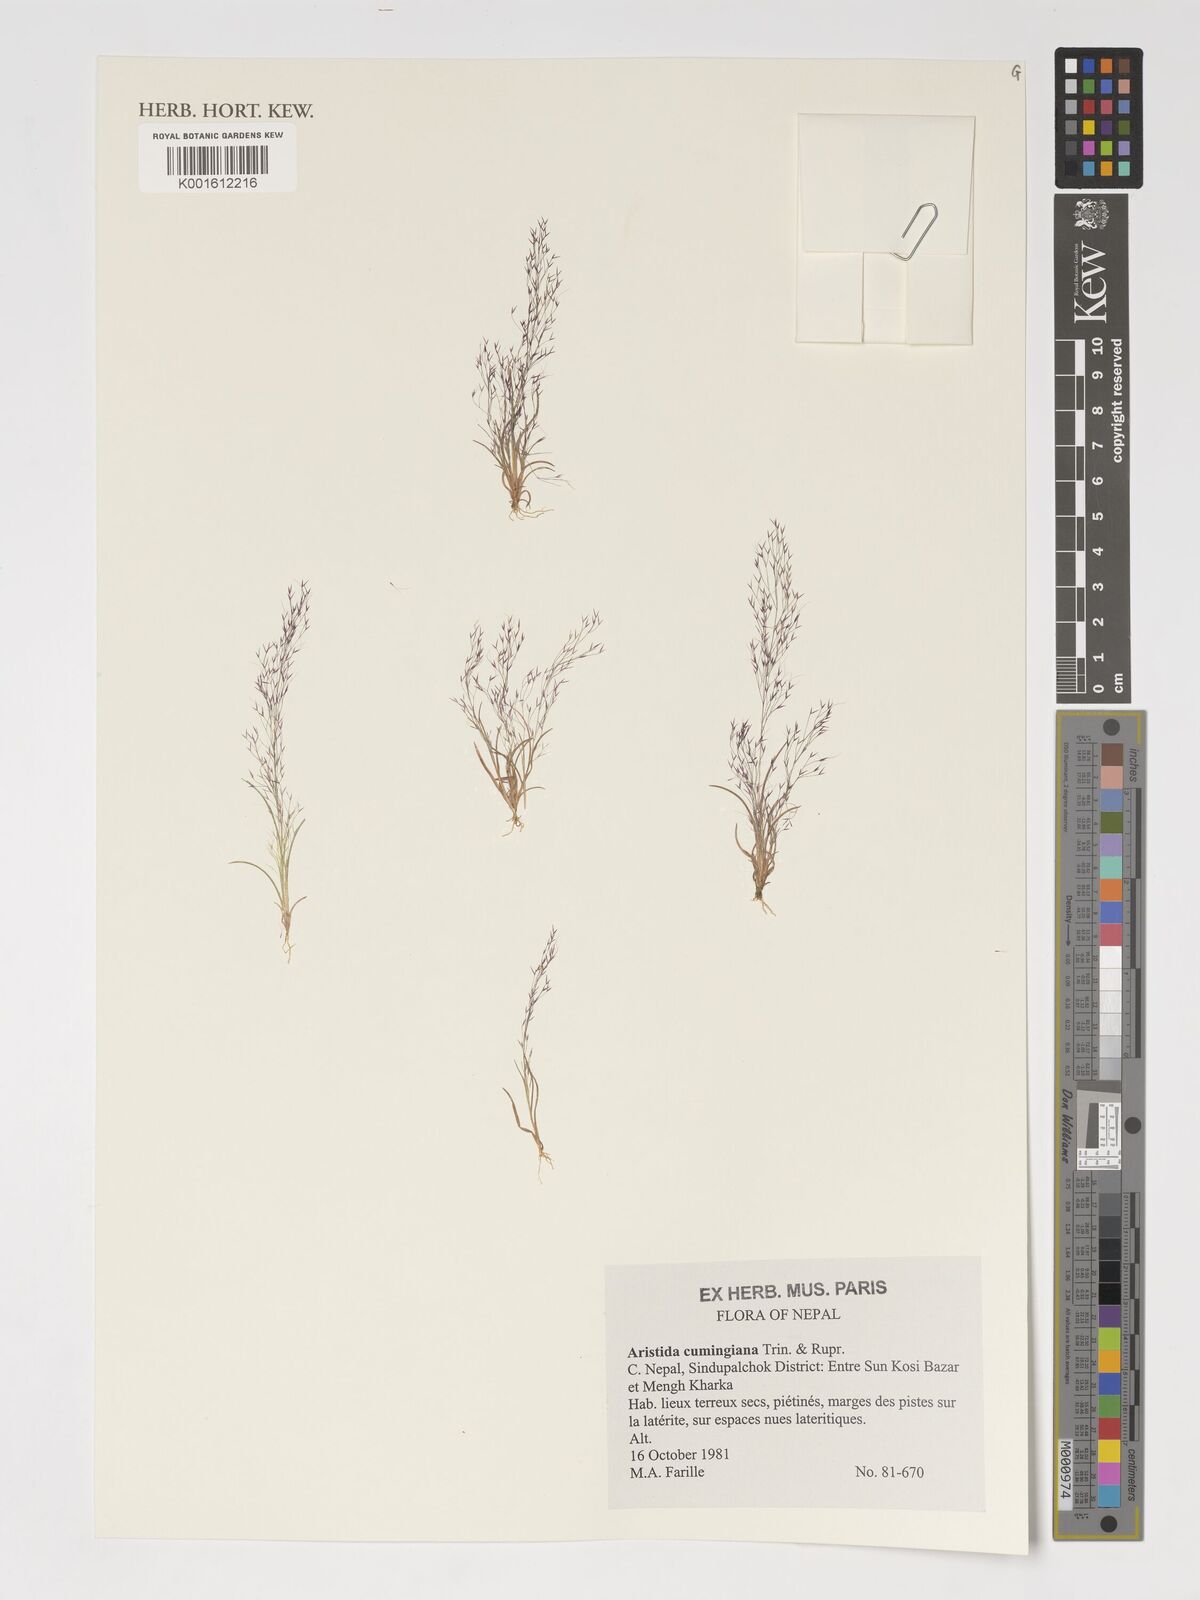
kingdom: Plantae
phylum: Tracheophyta
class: Liliopsida
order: Poales
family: Poaceae
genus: Aristida
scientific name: Aristida cumingiana
